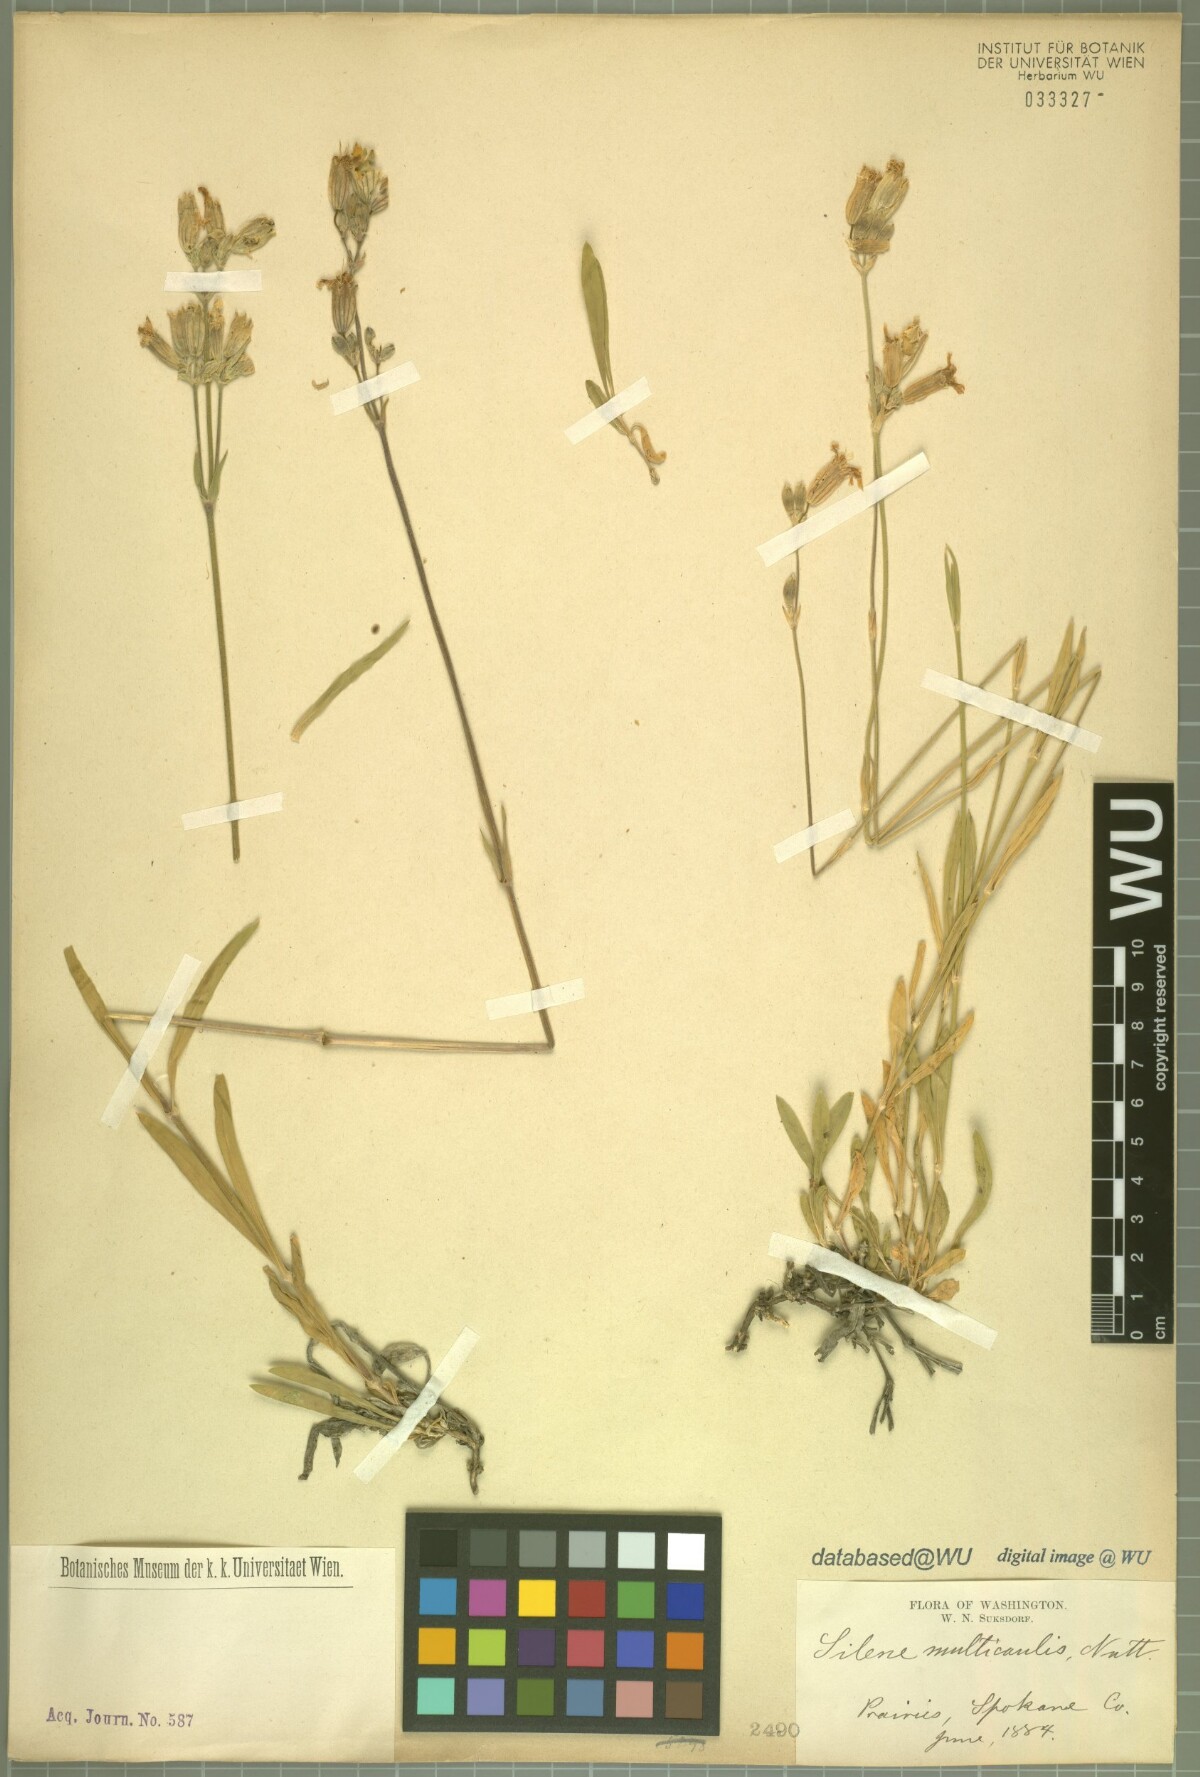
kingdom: Plantae
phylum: Tracheophyta
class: Magnoliopsida
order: Caryophyllales
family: Caryophyllaceae
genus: Silene
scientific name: Silene douglasii
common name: Douglas's catchfly
